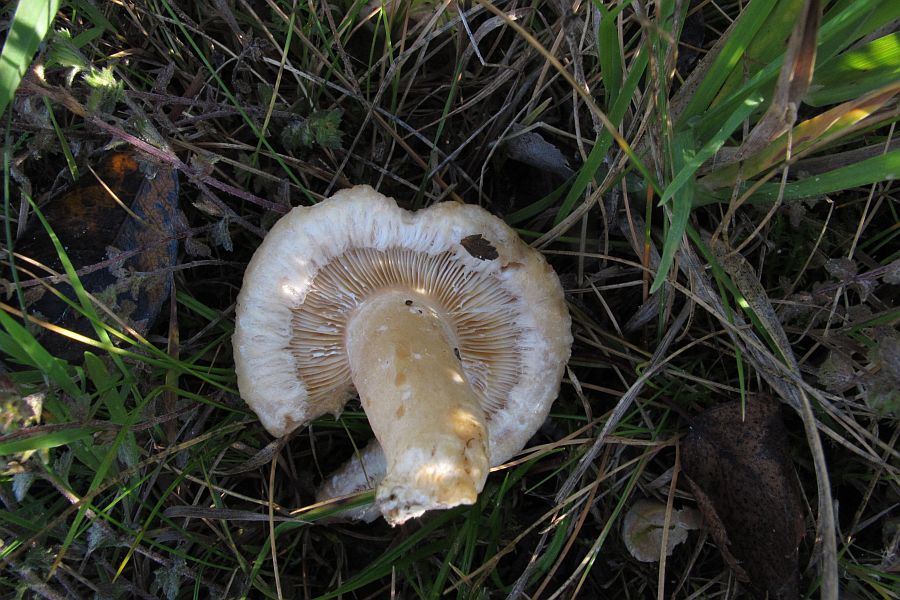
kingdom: Fungi
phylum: Basidiomycota
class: Agaricomycetes
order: Russulales
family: Russulaceae
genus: Lactarius
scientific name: Lactarius torminosus
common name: skægget mælkehat
